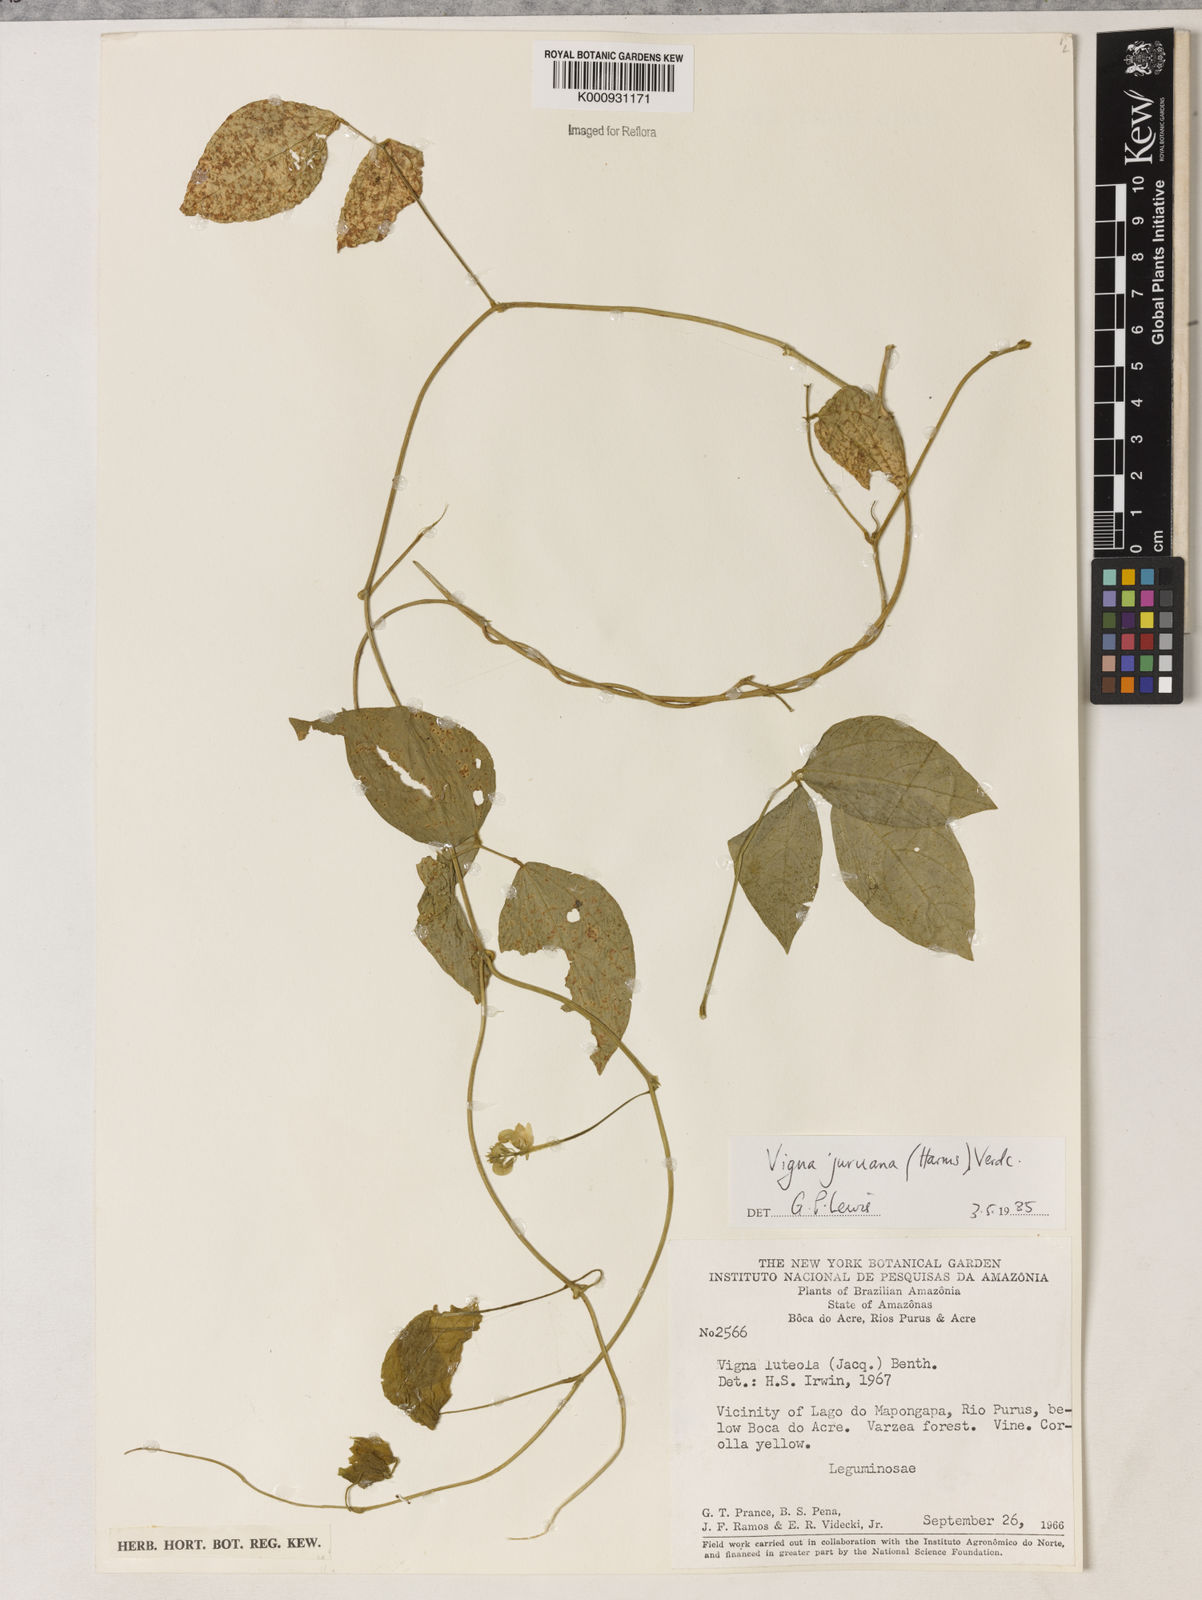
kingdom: Plantae
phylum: Tracheophyta
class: Magnoliopsida
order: Fabales
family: Fabaceae
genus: Vigna
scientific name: Vigna juruana
